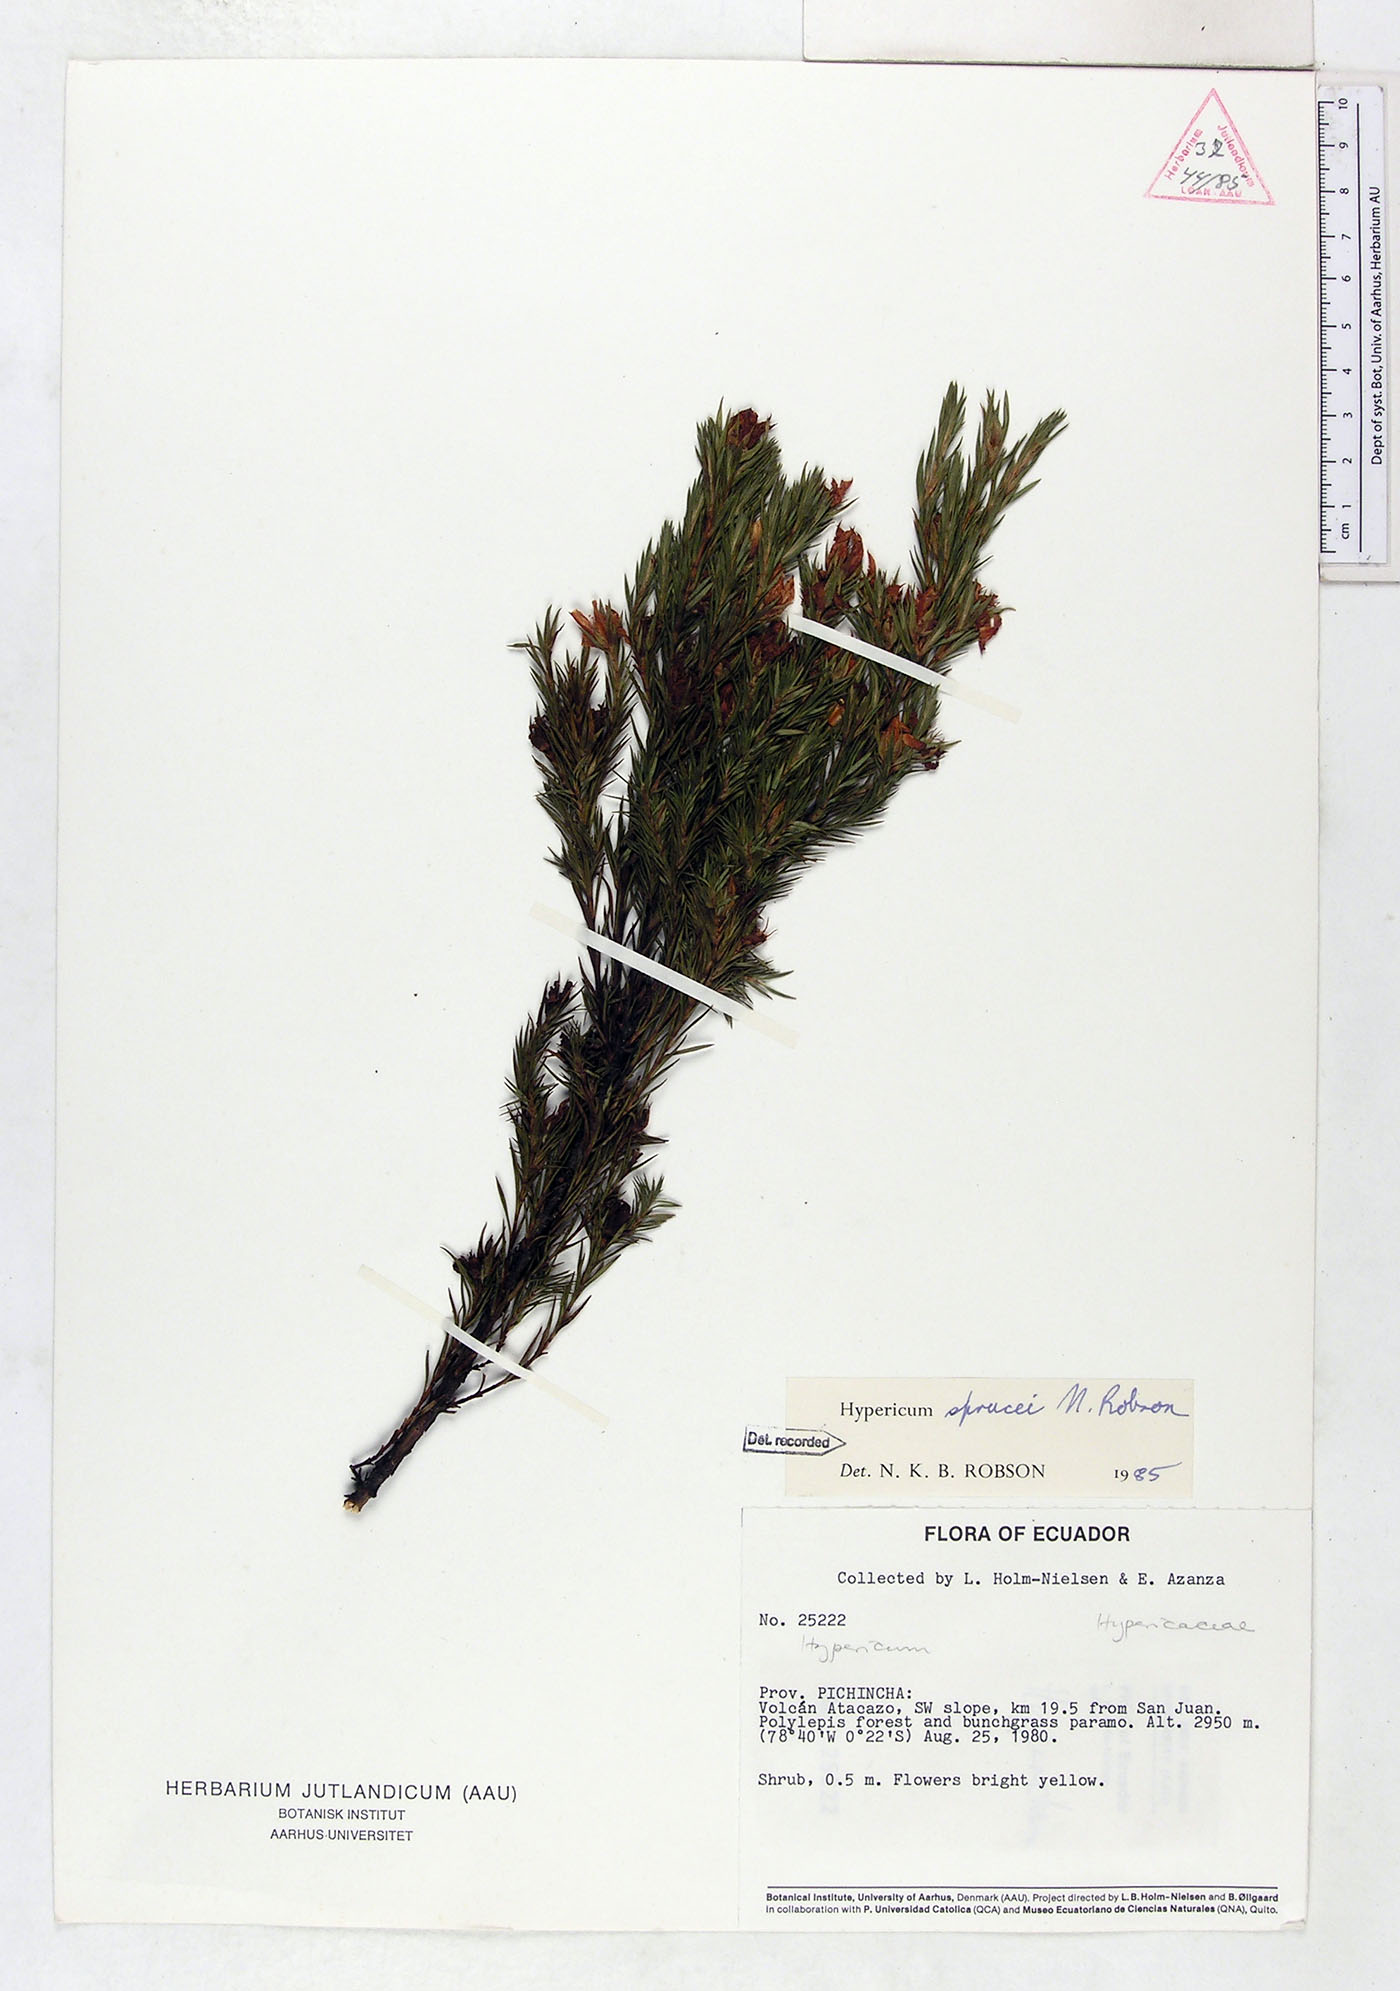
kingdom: Plantae
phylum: Tracheophyta
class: Magnoliopsida
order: Malpighiales
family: Hypericaceae
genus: Hypericum
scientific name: Hypericum sprucei
